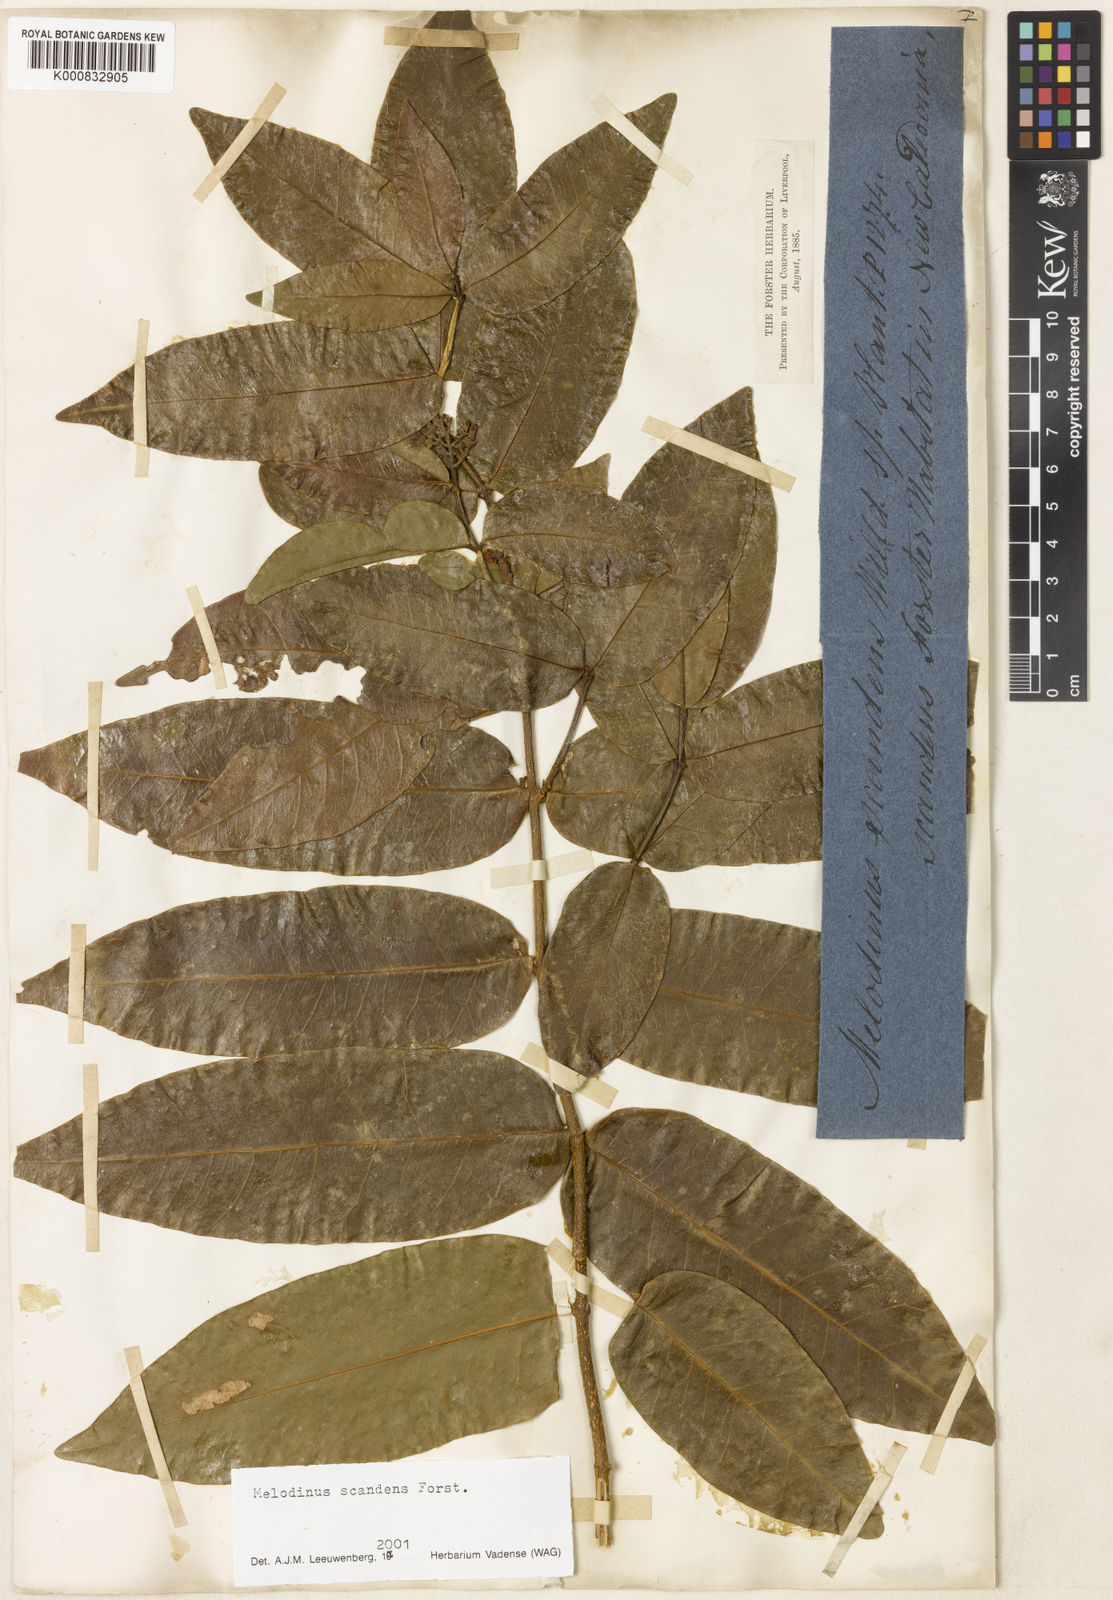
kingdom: Plantae
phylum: Tracheophyta
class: Magnoliopsida
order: Gentianales
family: Apocynaceae
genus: Melodinus
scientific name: Melodinus scandens
